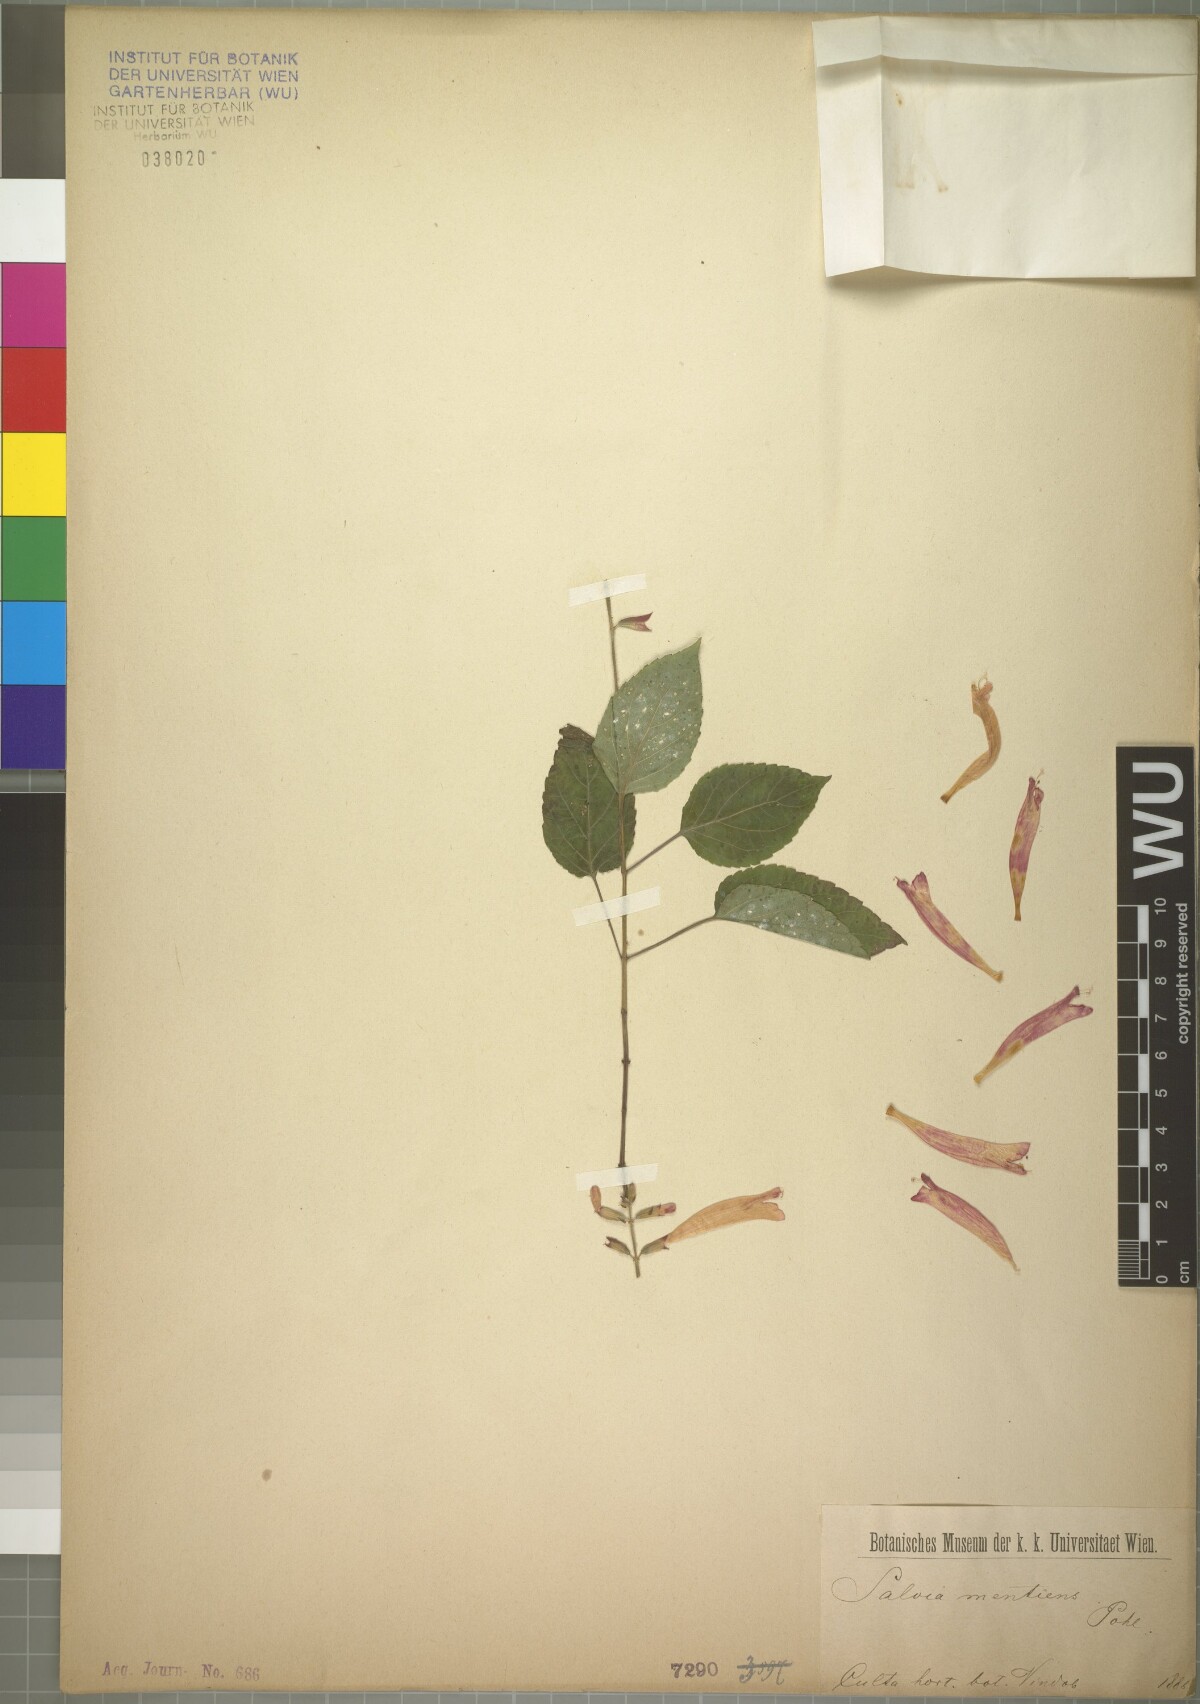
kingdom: Plantae
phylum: Tracheophyta
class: Magnoliopsida
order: Lamiales
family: Lamiaceae
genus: Salvia
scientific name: Salvia mentiens
